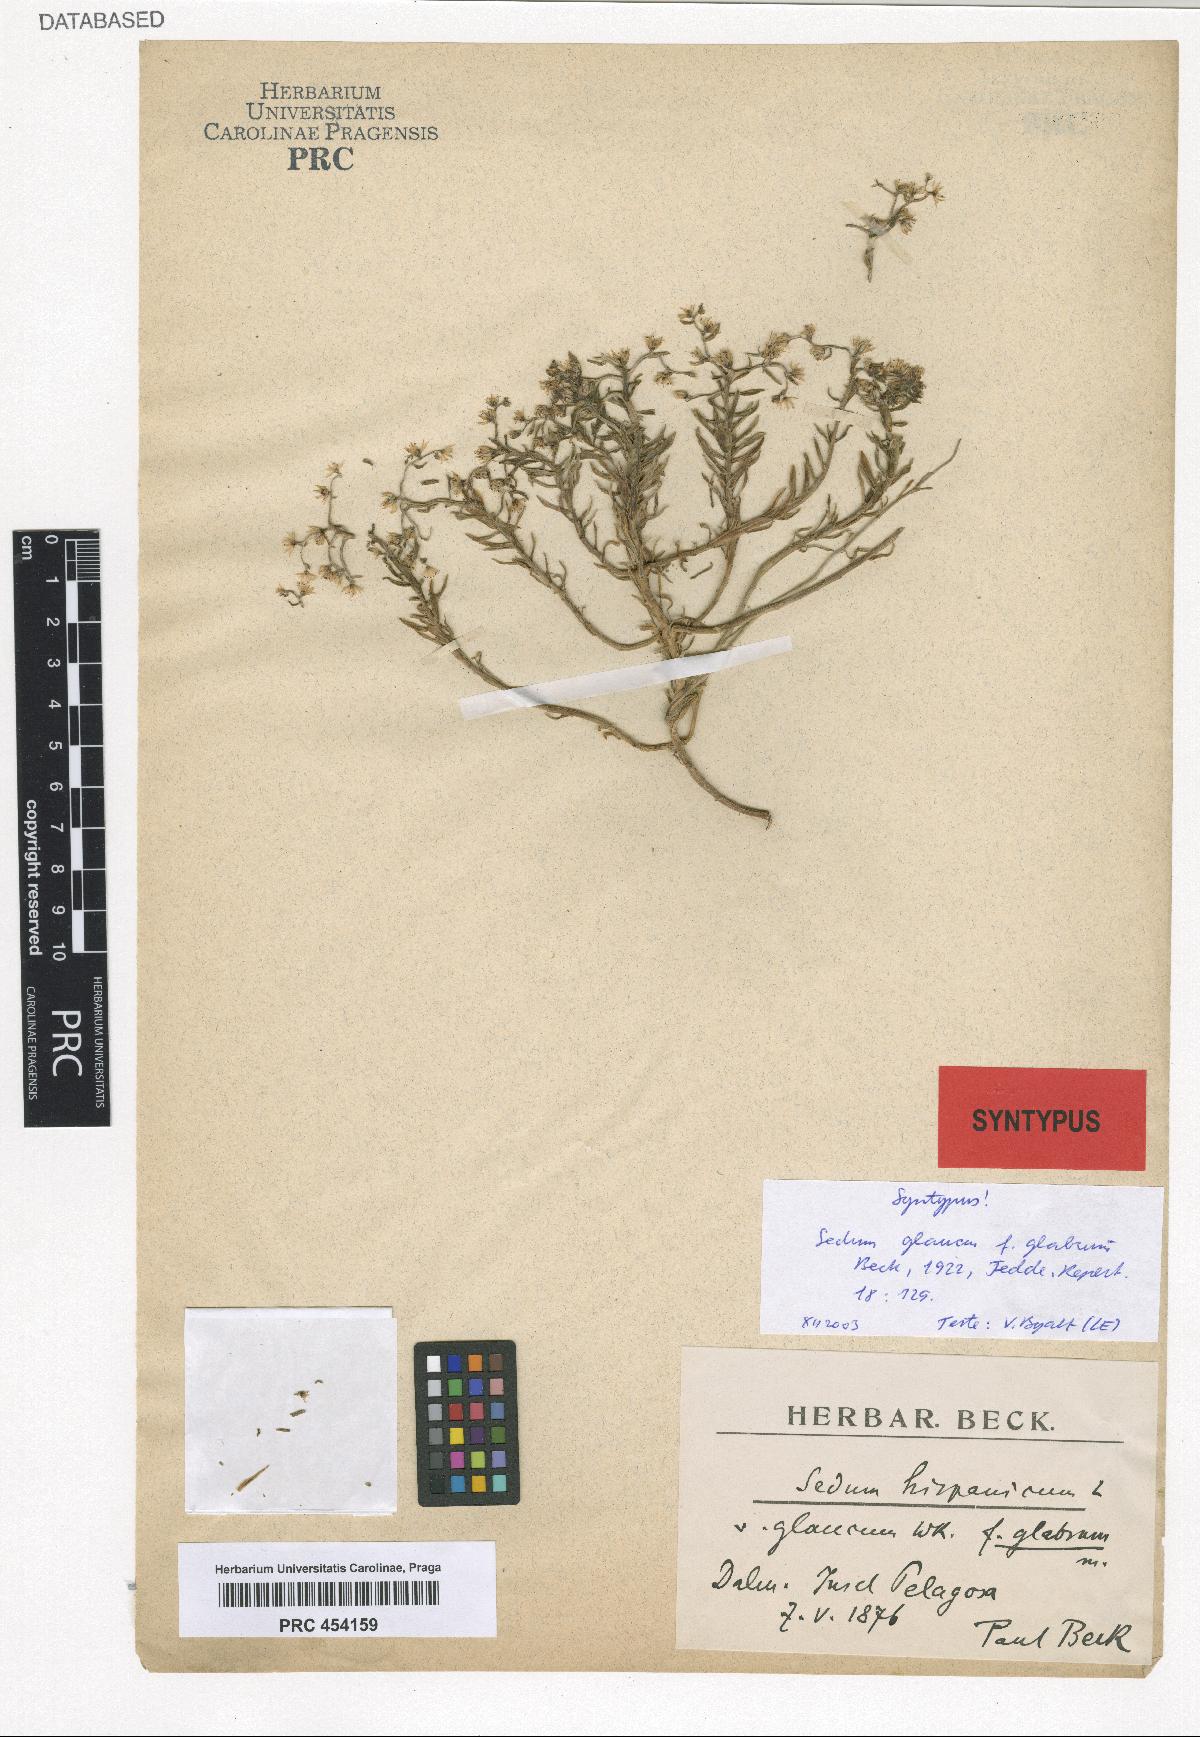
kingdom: Plantae
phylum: Tracheophyta
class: Magnoliopsida
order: Saxifragales
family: Crassulaceae
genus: Sedum
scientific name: Sedum glaucum
